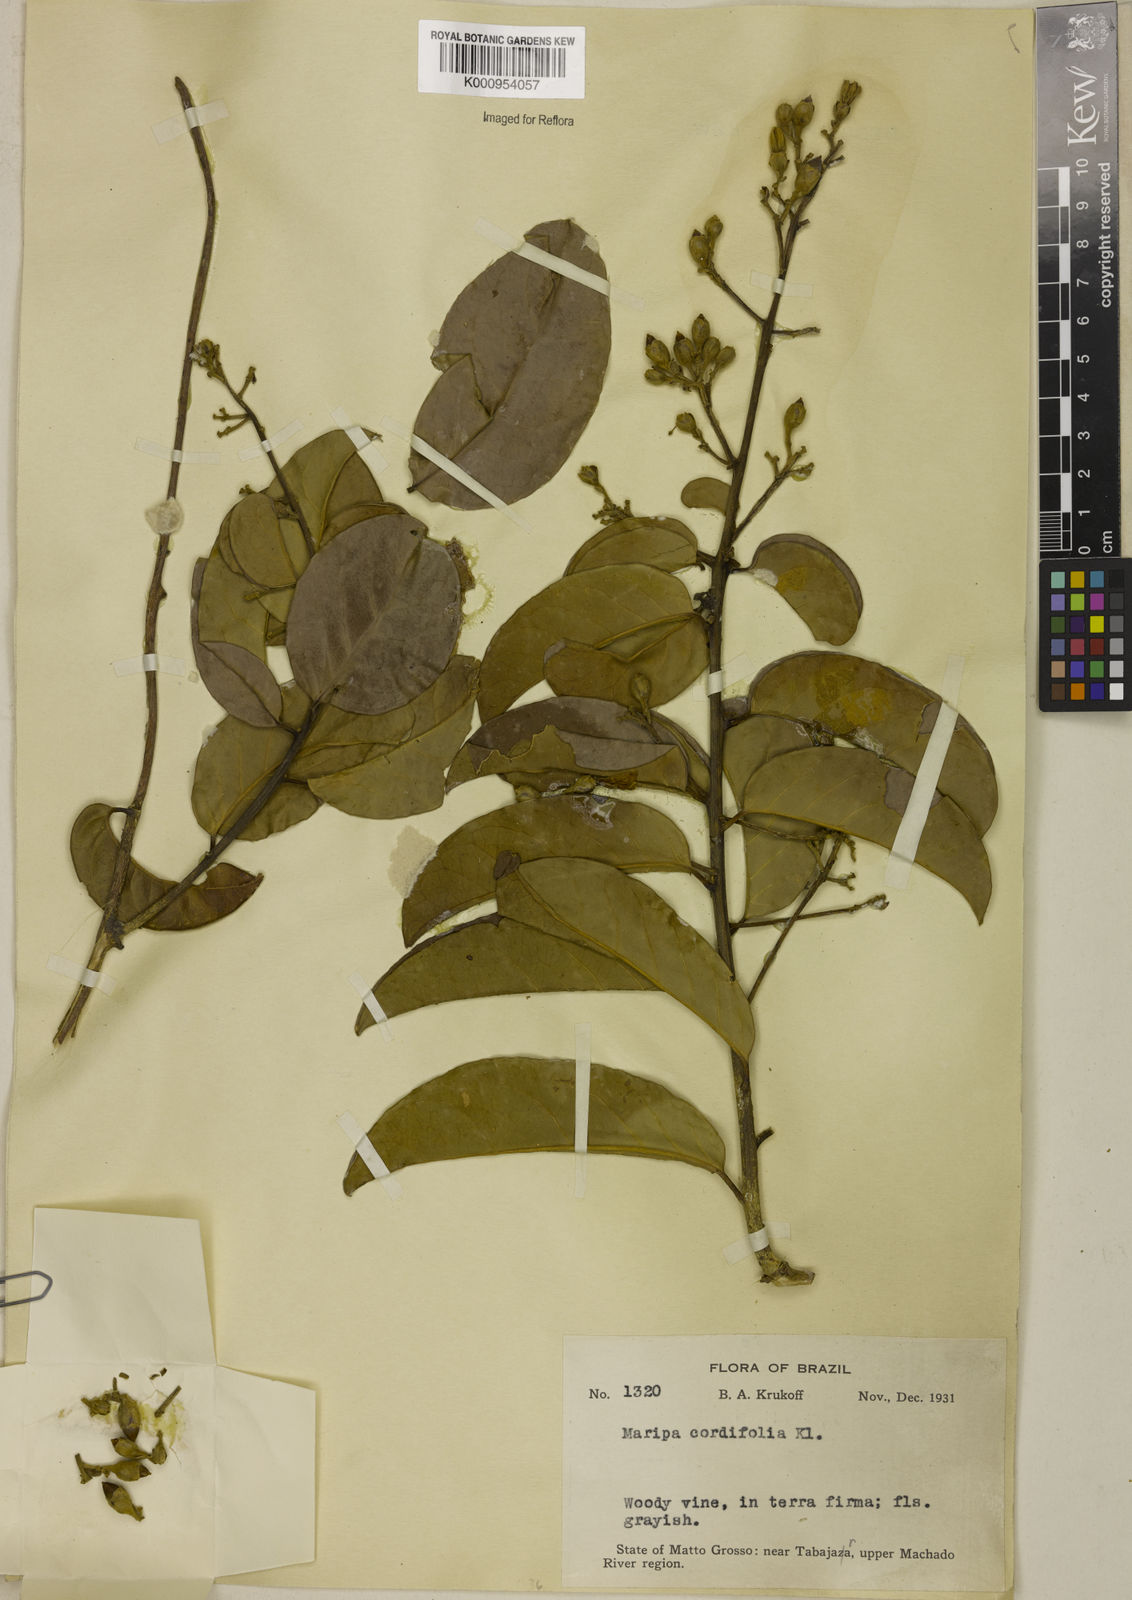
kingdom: Plantae
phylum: Tracheophyta
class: Magnoliopsida
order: Solanales
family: Convolvulaceae
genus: Maripa
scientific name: Maripa scandens
